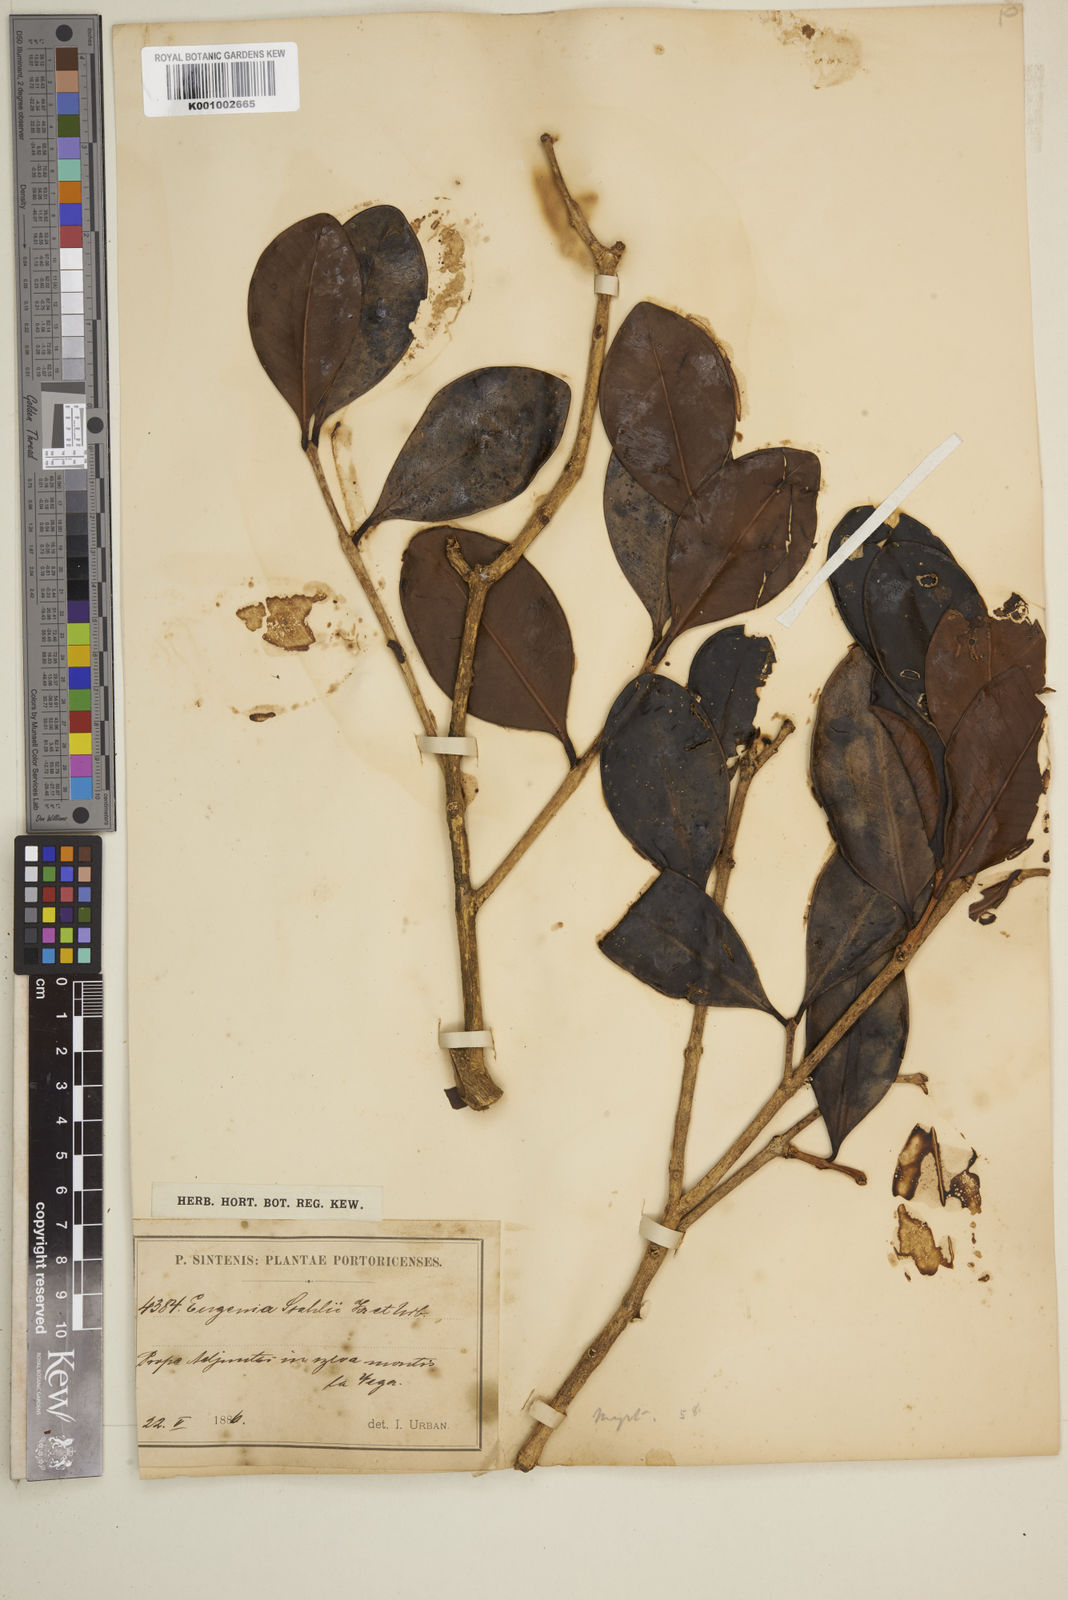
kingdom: Plantae
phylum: Tracheophyta
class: Magnoliopsida
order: Myrtales
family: Myrtaceae
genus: Eugenia
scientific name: Eugenia stahlii
